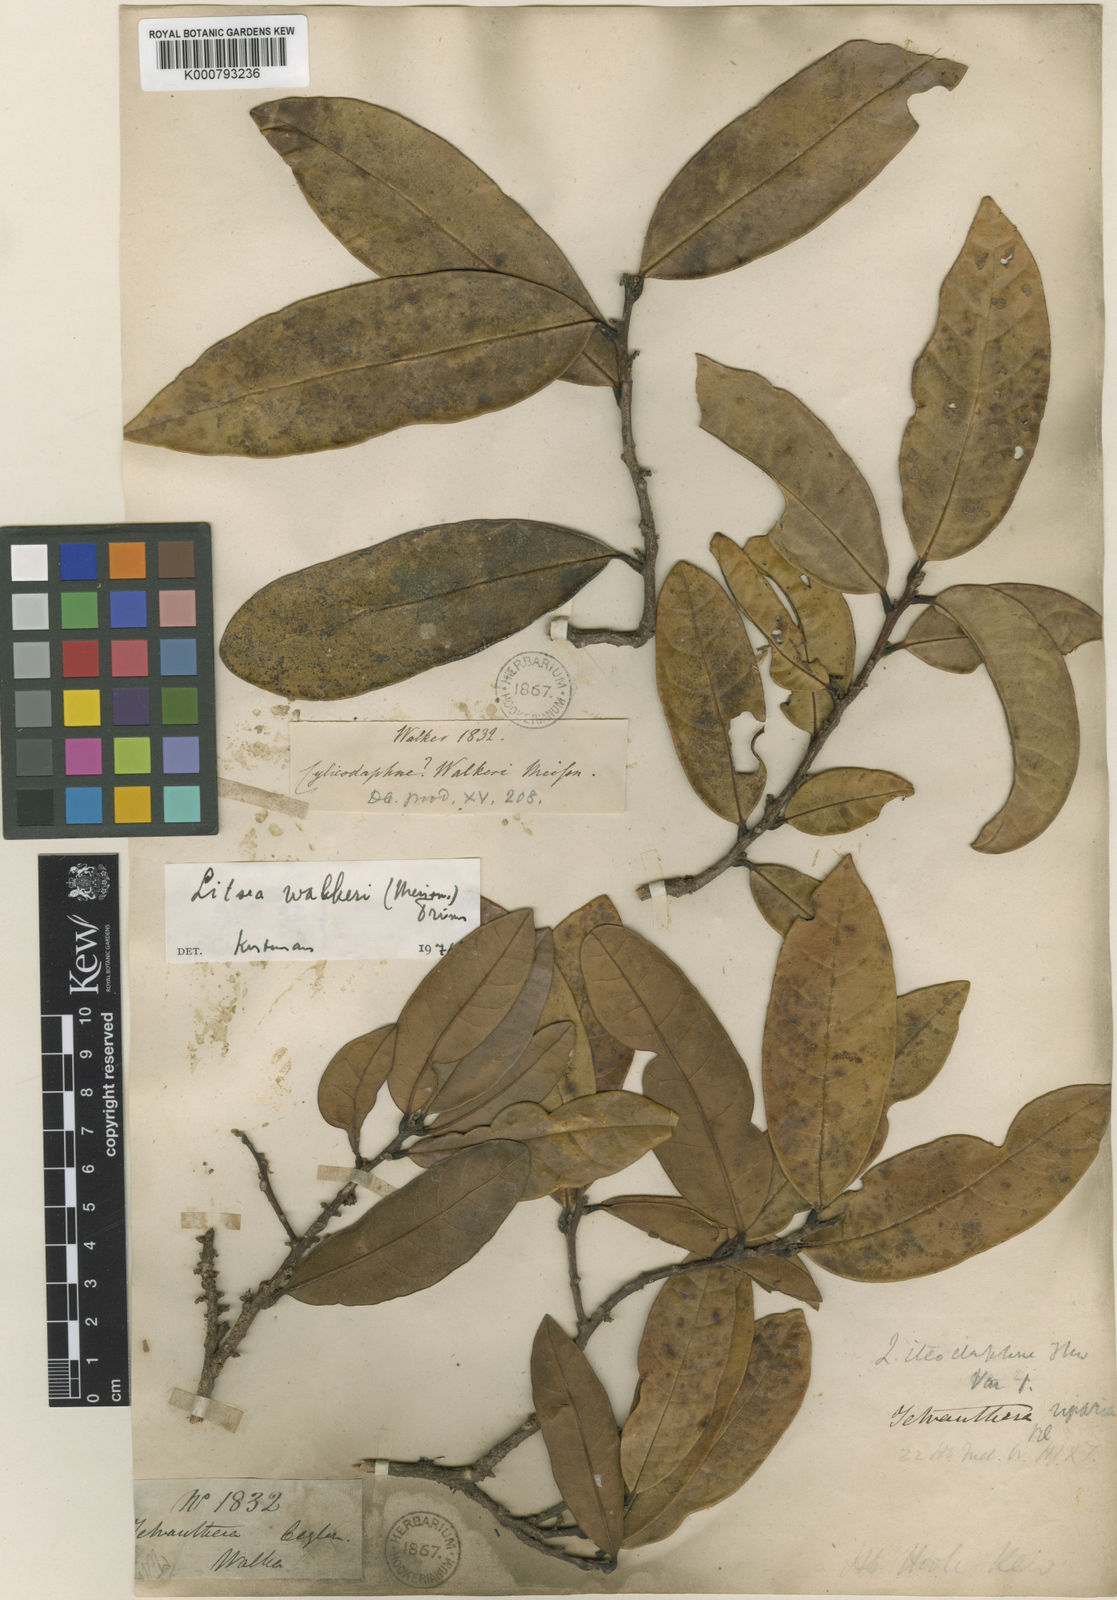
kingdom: Plantae
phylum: Tracheophyta
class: Magnoliopsida
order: Laurales
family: Lauraceae
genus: Litsea
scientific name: Litsea walkeri
